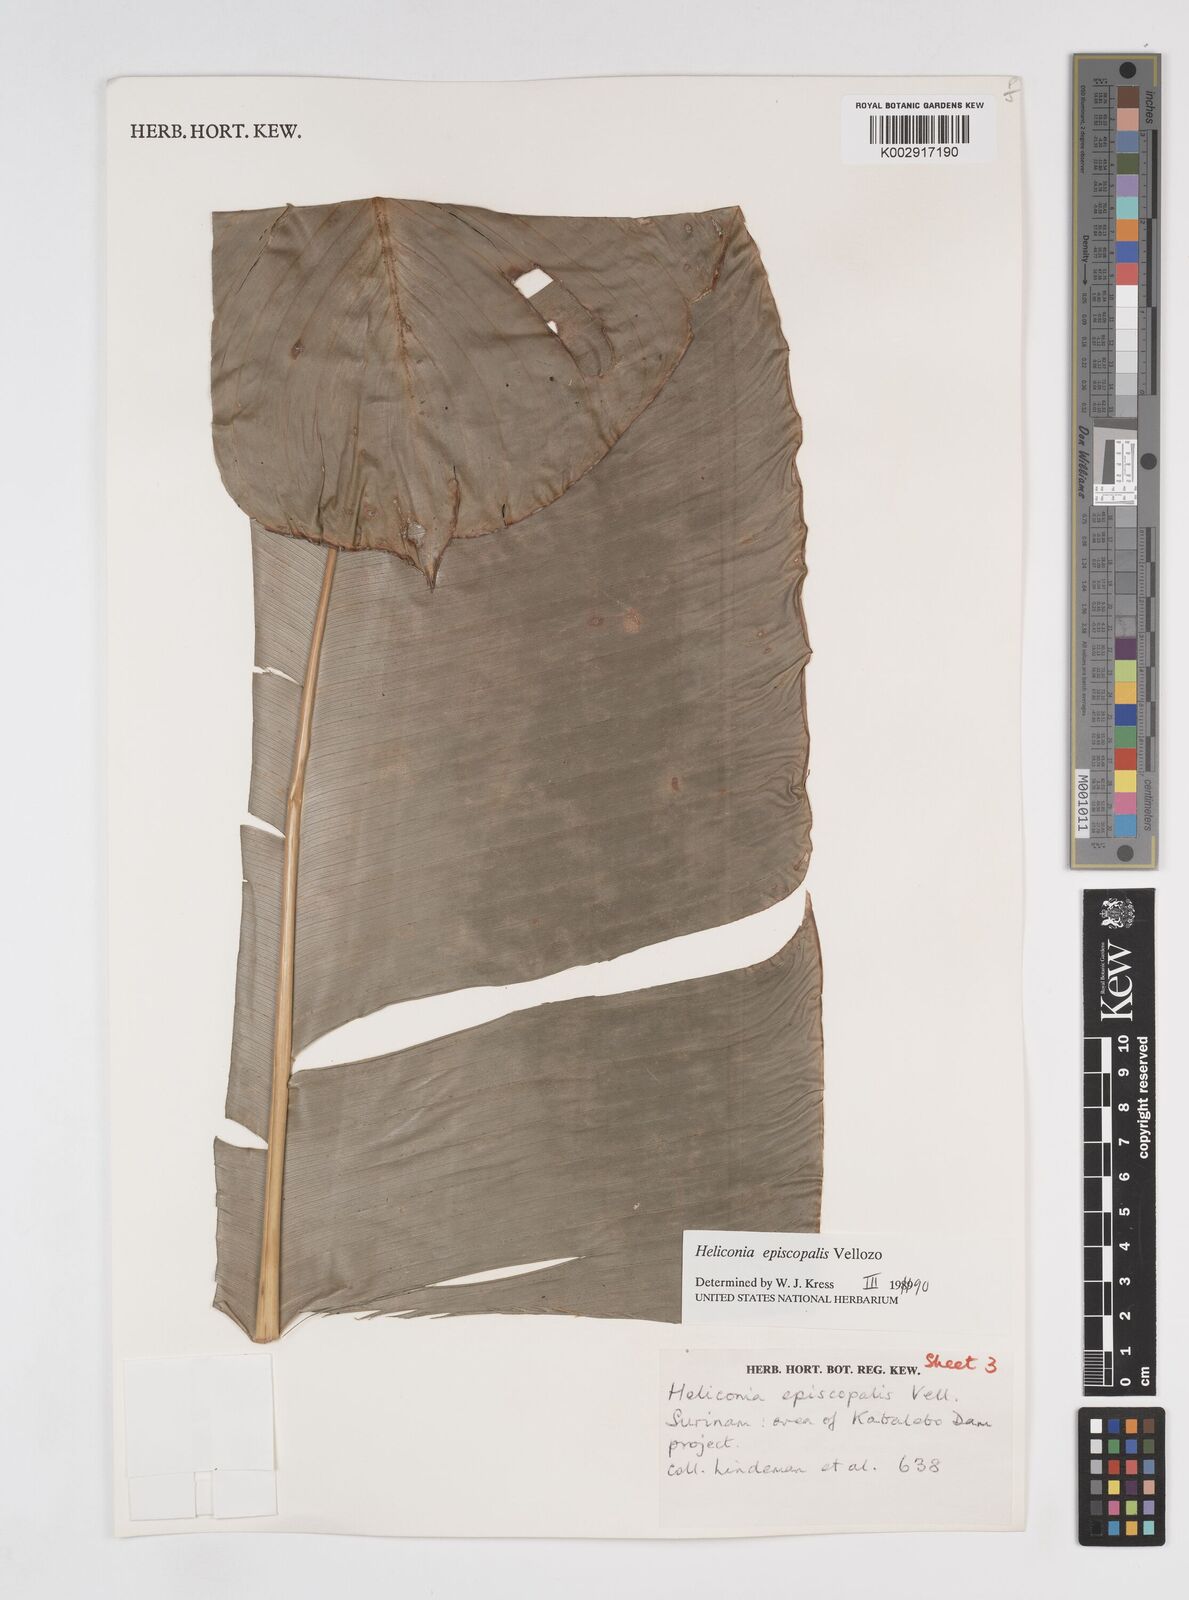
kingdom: Plantae
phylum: Tracheophyta
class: Liliopsida
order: Zingiberales
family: Heliconiaceae
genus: Heliconia
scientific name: Heliconia episcopalis
